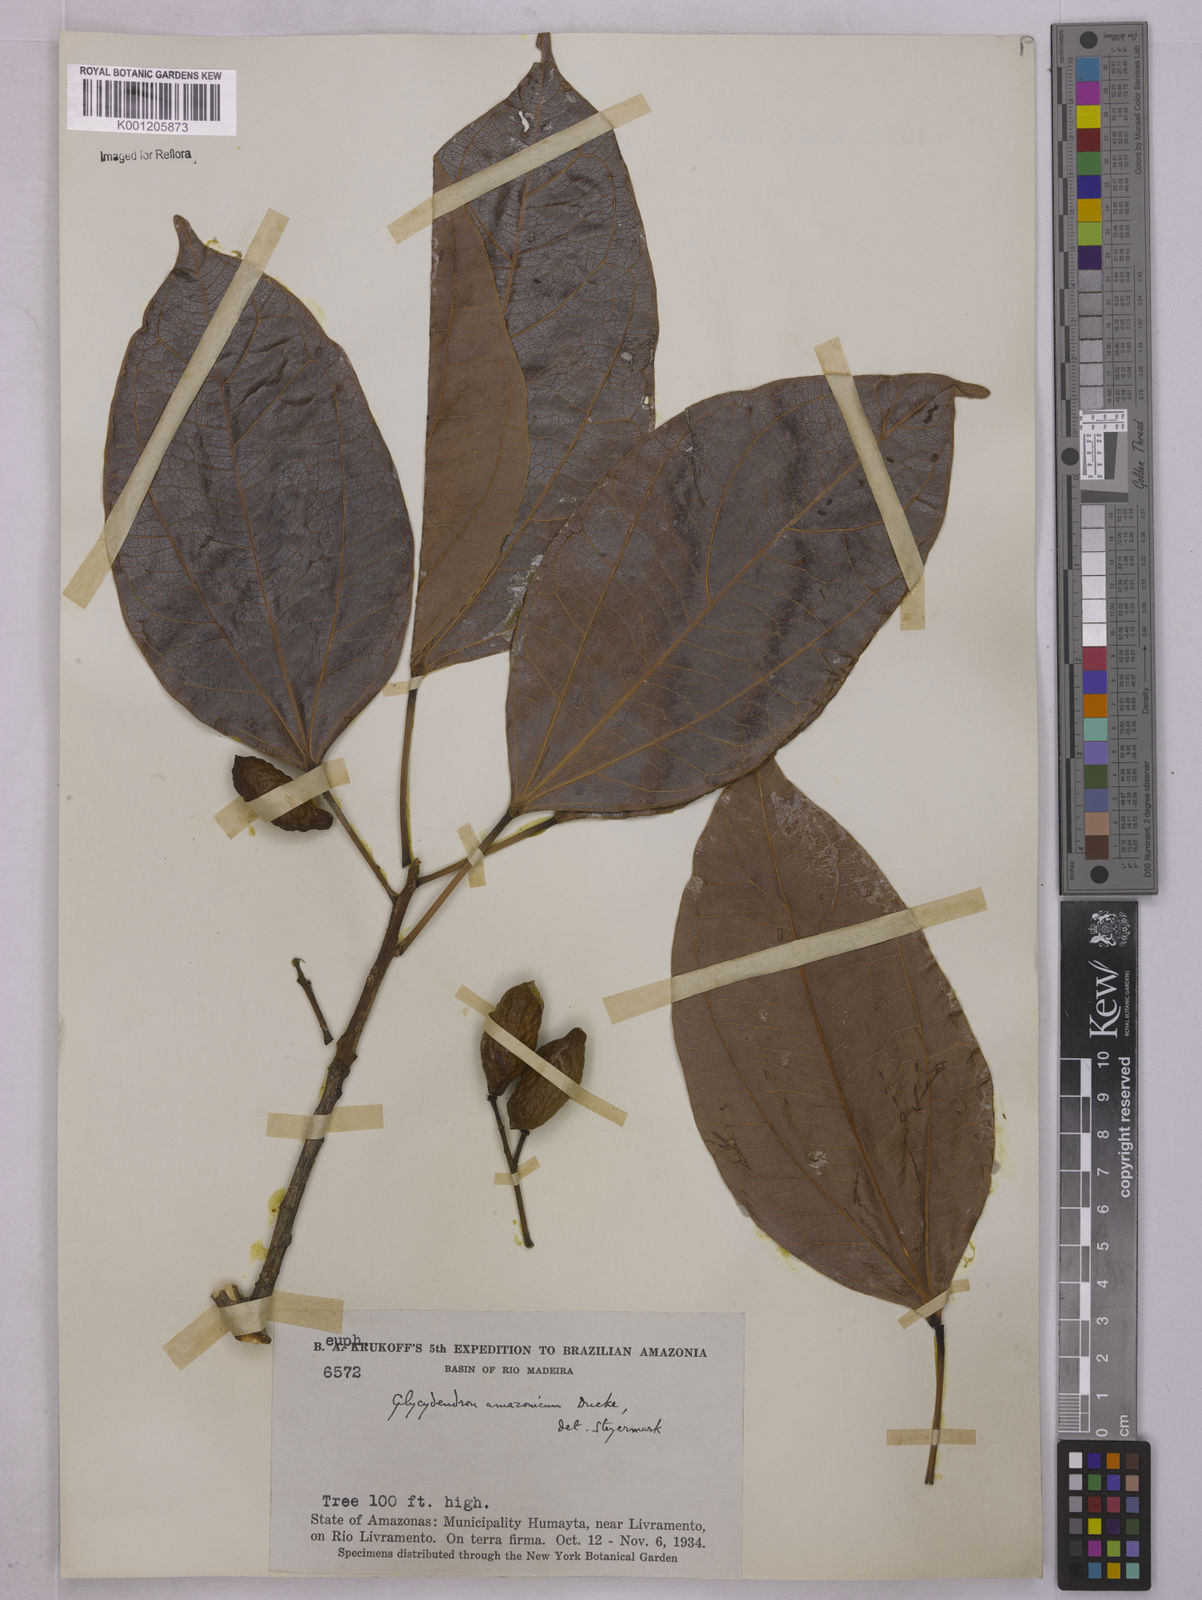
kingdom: Plantae
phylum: Tracheophyta
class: Magnoliopsida
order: Malpighiales
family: Euphorbiaceae
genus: Glycydendron
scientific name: Glycydendron amazonicum
